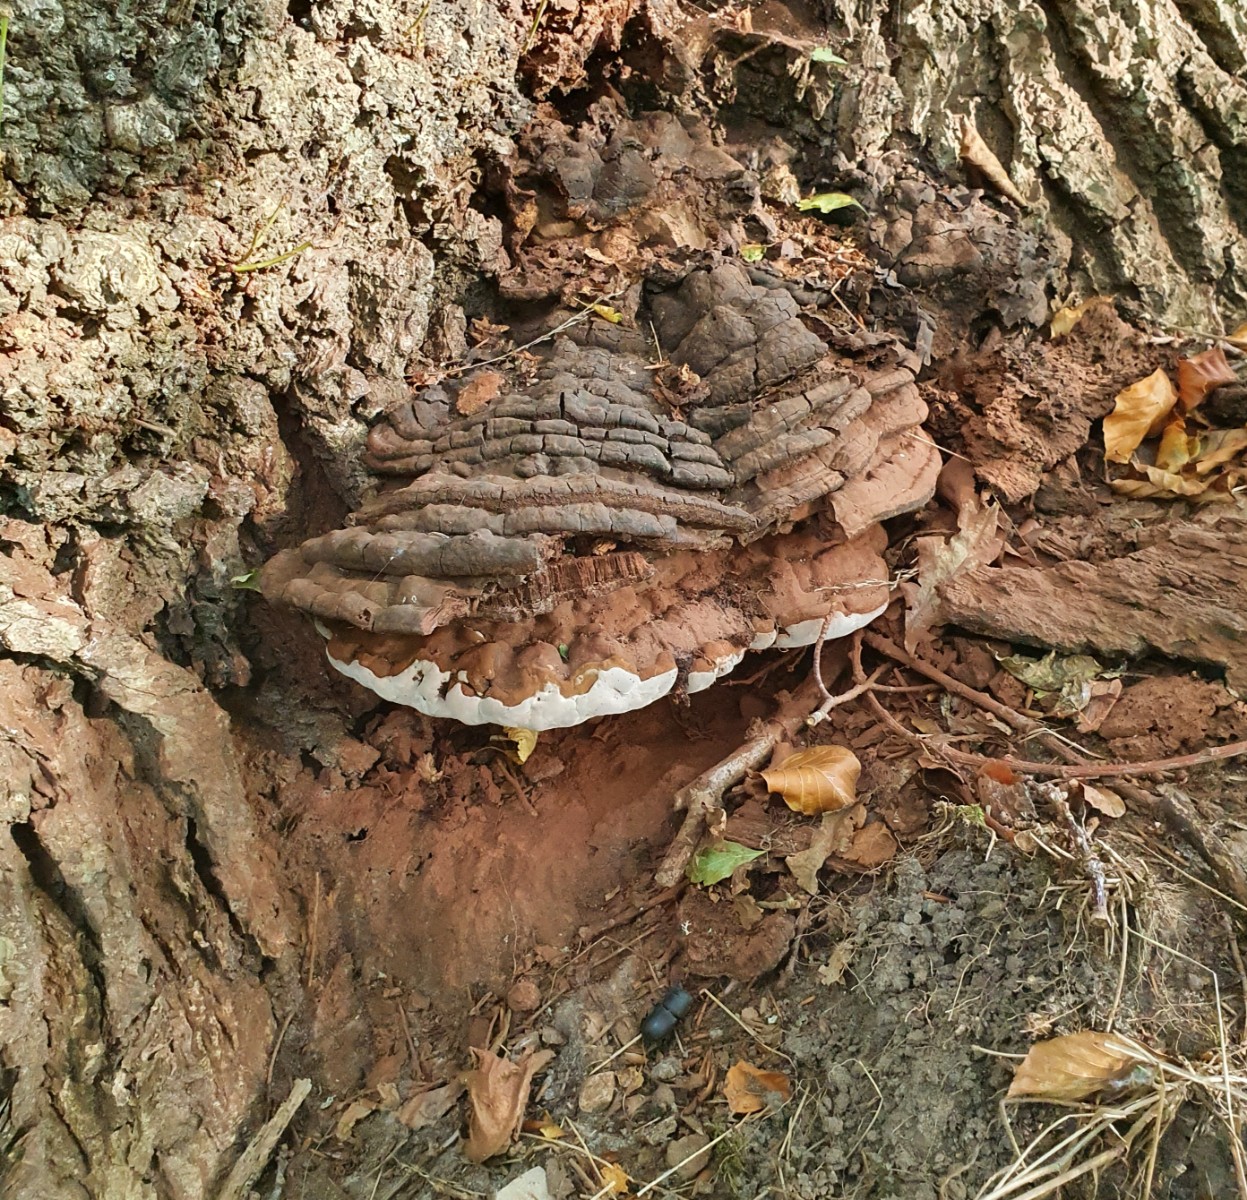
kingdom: Fungi
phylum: Basidiomycota
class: Agaricomycetes
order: Polyporales
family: Polyporaceae
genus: Ganoderma
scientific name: Ganoderma adspersum
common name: grov lakporesvamp
